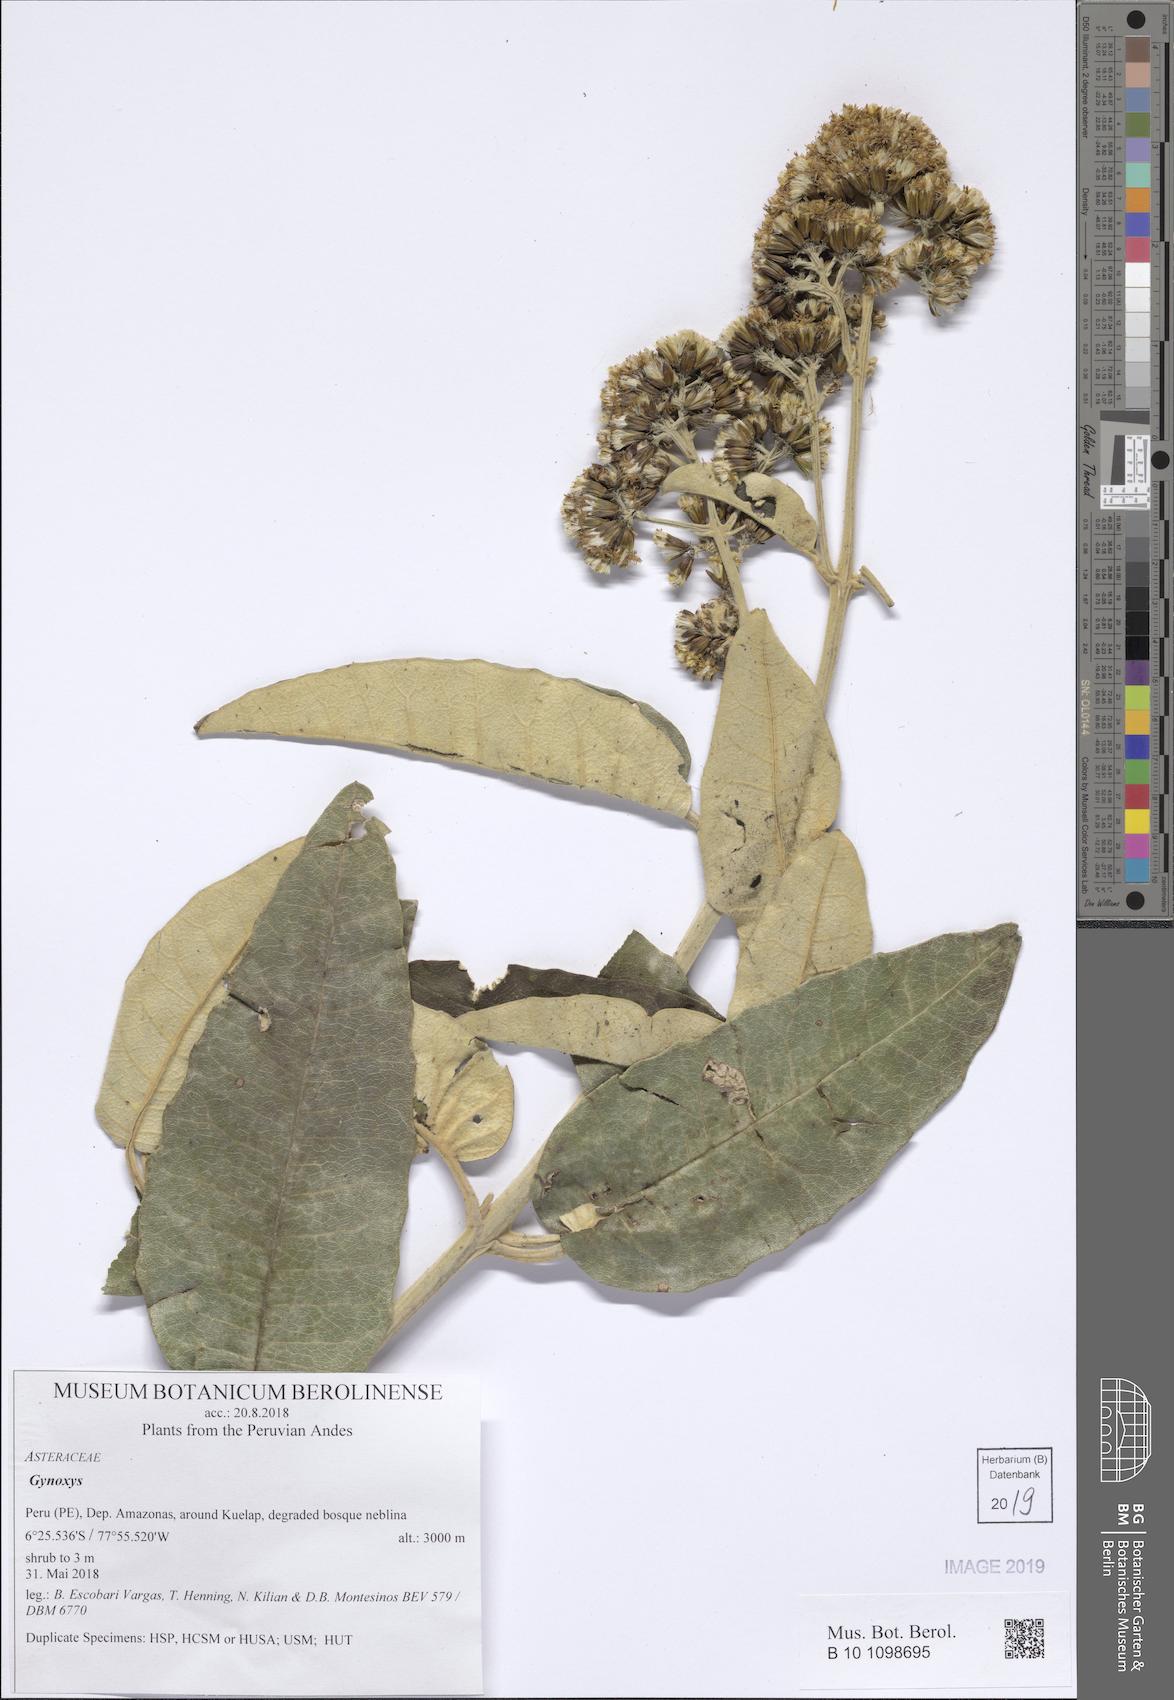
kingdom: Plantae
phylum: Tracheophyta
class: Magnoliopsida
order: Asterales
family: Asteraceae
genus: Gynoxys
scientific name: Gynoxys
